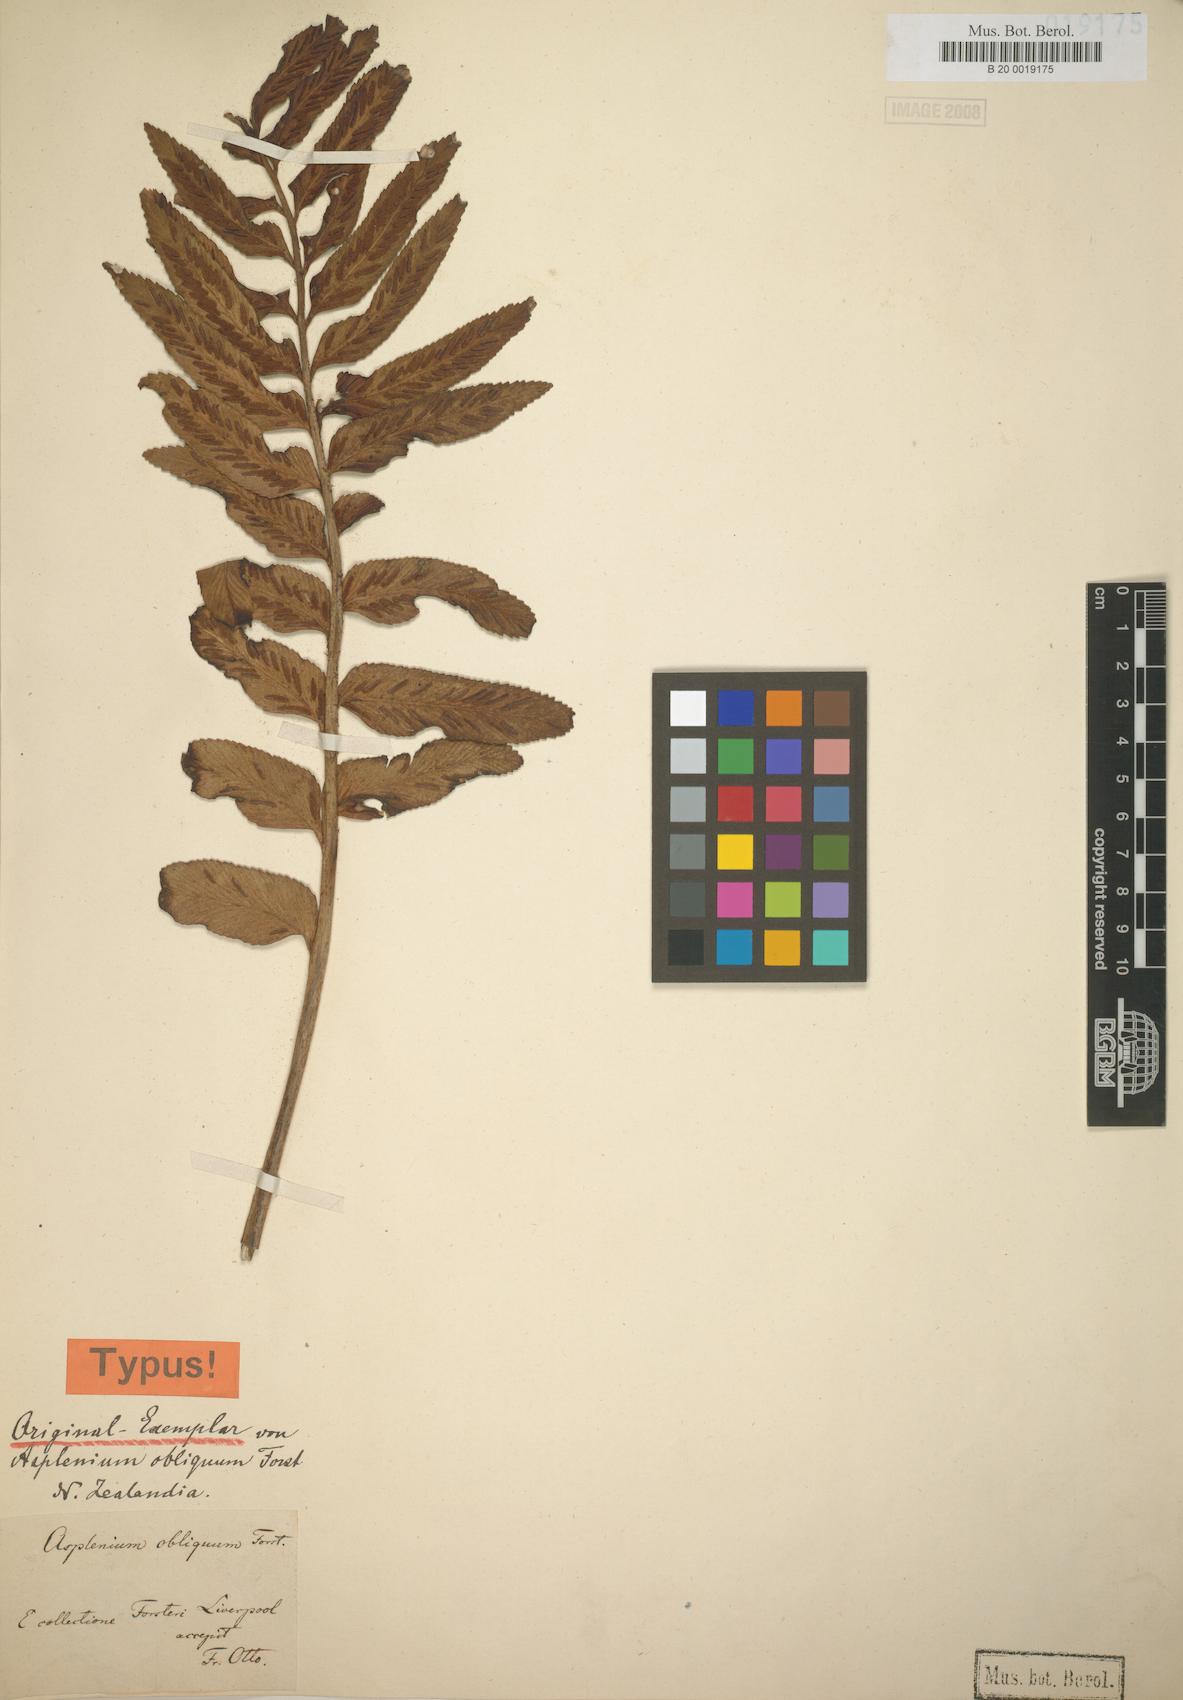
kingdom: Plantae
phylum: Tracheophyta
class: Polypodiopsida
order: Polypodiales
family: Aspleniaceae
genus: Asplenium
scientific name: Asplenium obtusatum
